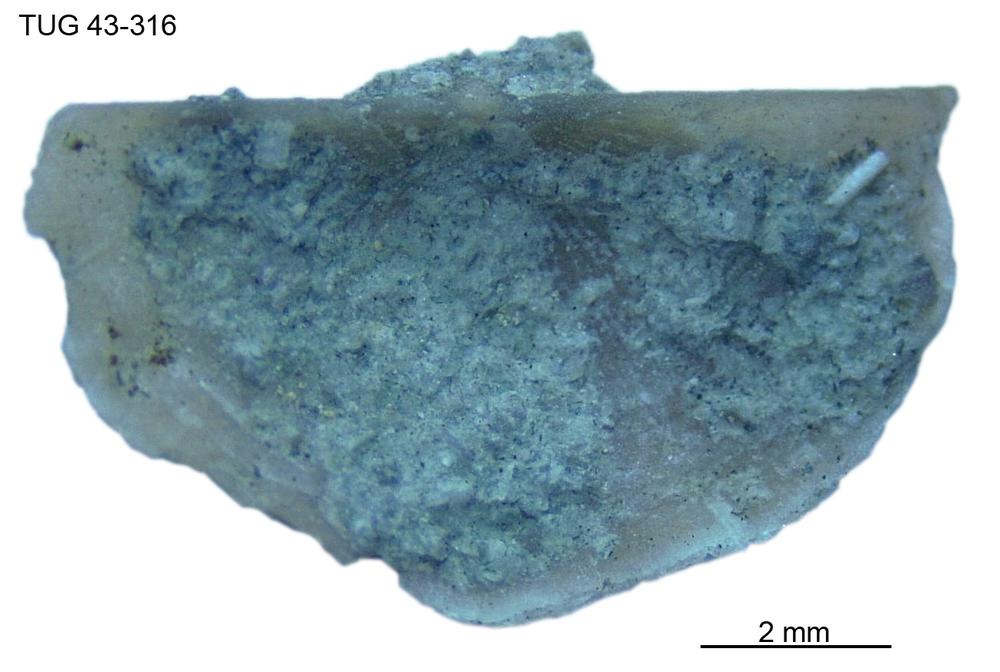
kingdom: Animalia
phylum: Brachiopoda
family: Oldhaminidae
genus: Eoplectodonta
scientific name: Eoplectodonta
